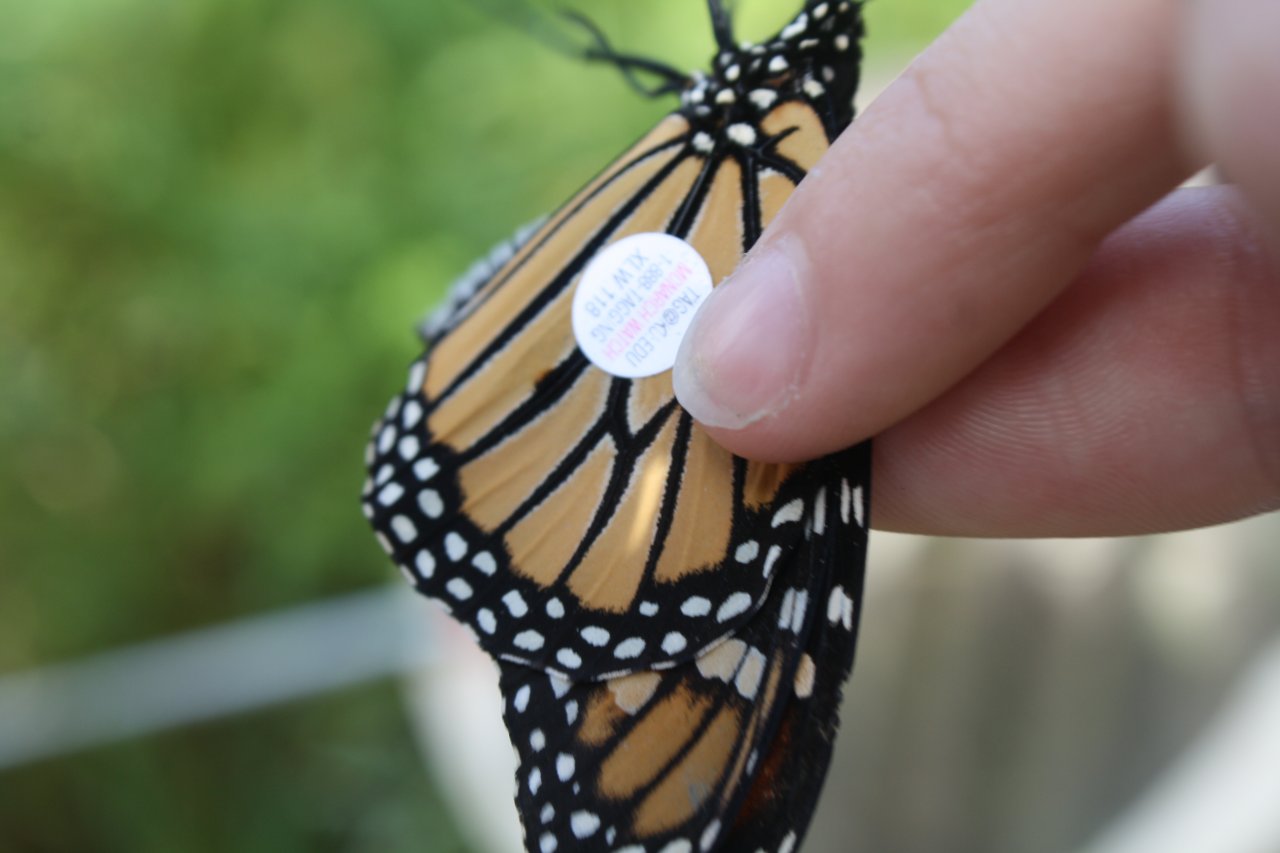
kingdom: Animalia
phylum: Arthropoda
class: Insecta
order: Lepidoptera
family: Nymphalidae
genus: Danaus
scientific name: Danaus plexippus
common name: Monarch
